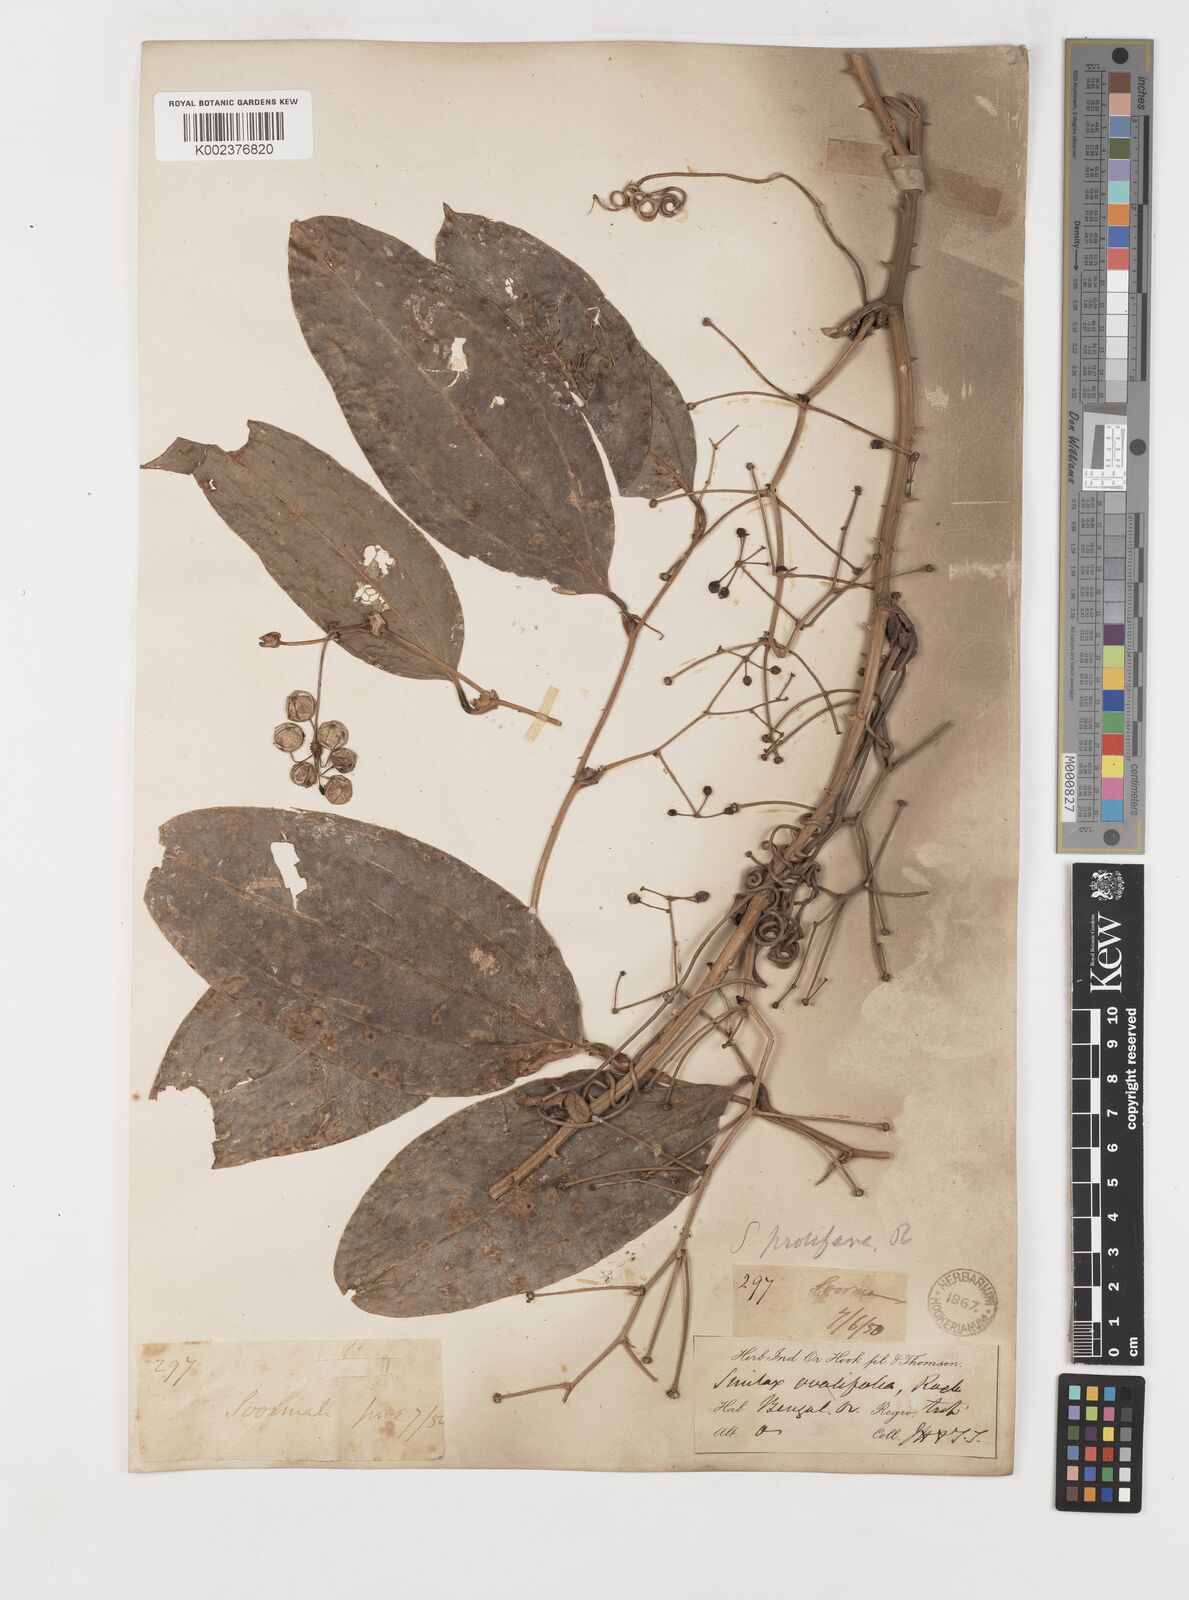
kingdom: Plantae
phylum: Tracheophyta
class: Liliopsida
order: Liliales
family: Smilacaceae
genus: Smilax
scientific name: Smilax prolifera
